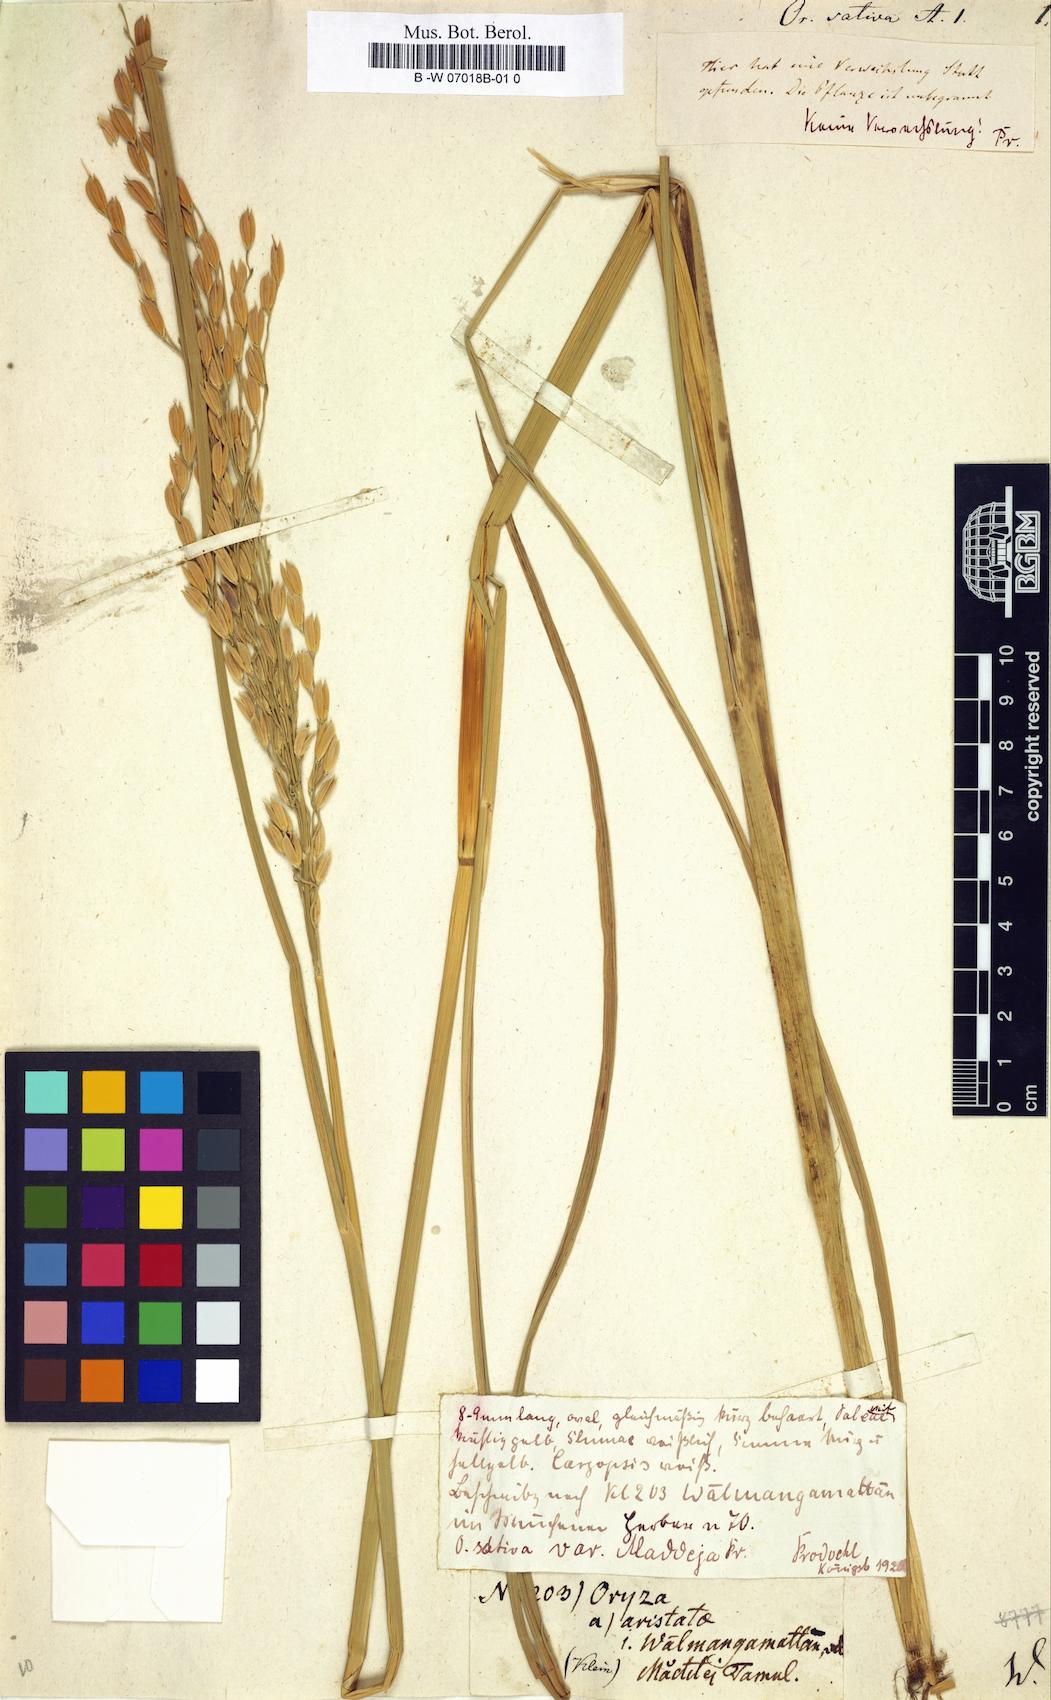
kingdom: Plantae
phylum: Tracheophyta
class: Liliopsida
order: Poales
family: Poaceae
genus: Oryza
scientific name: Oryza sativa
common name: Rice
